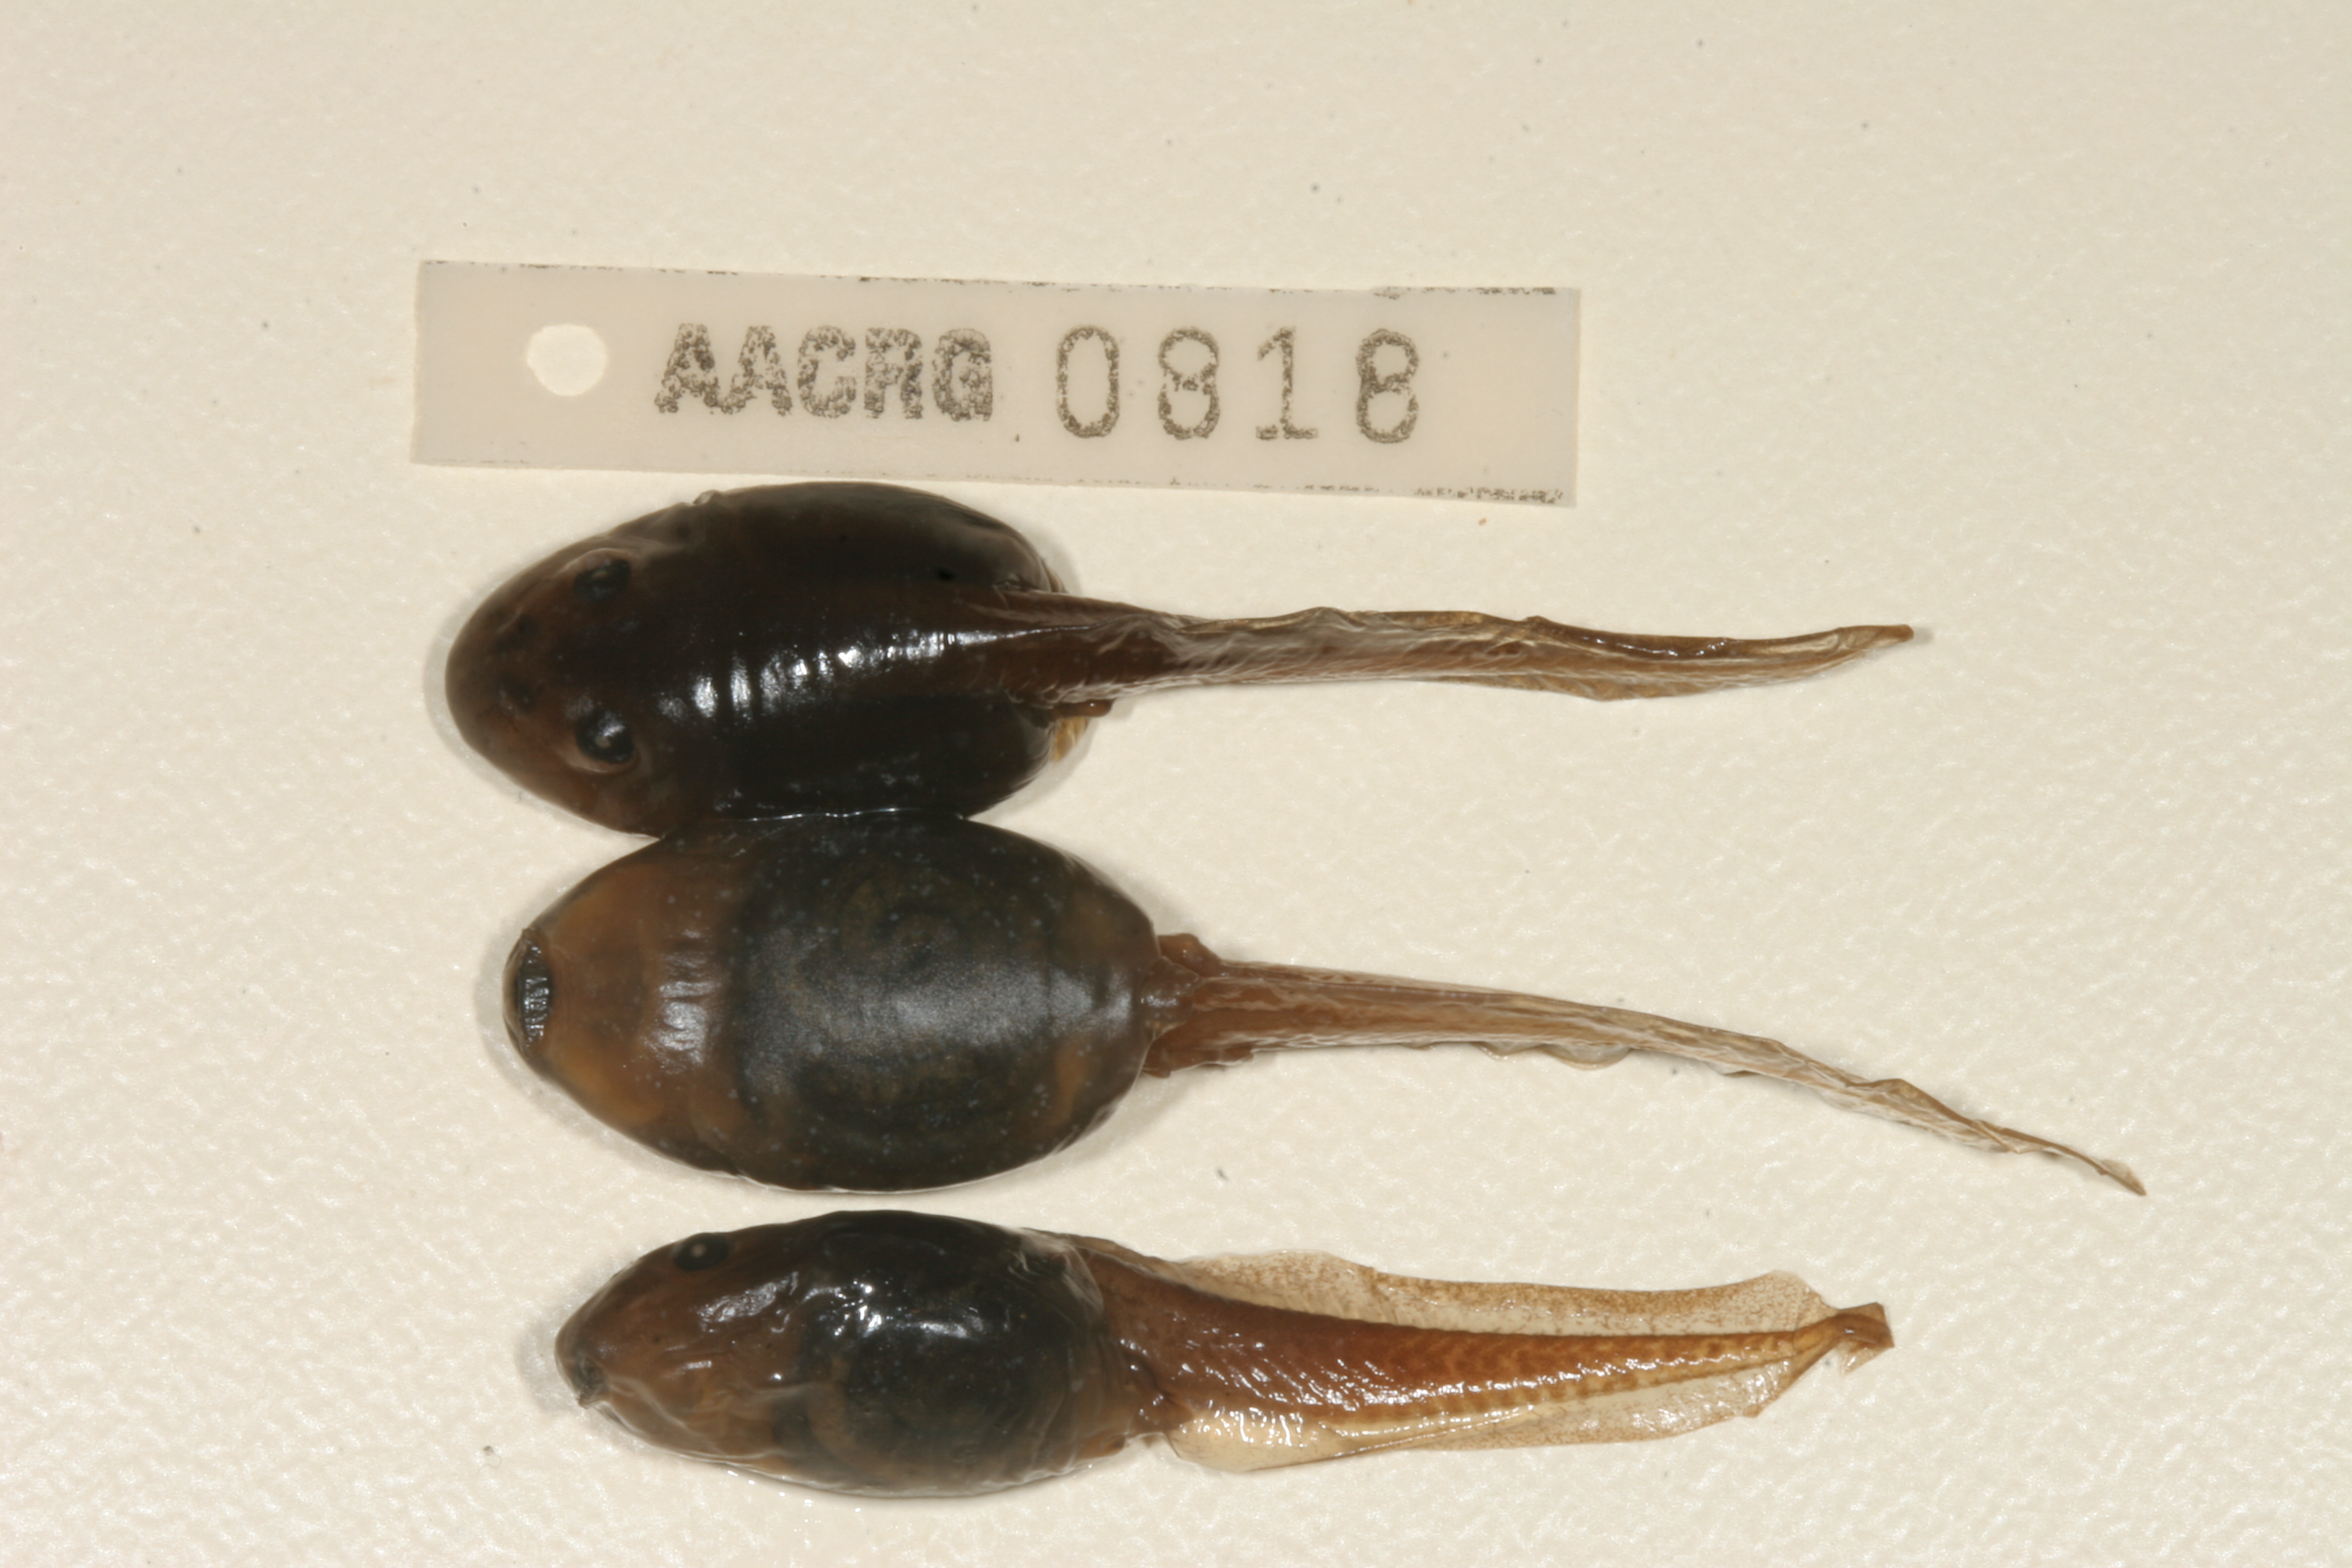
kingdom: Animalia
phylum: Chordata
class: Amphibia
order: Anura
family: Pyxicephalidae
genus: Strongylopus
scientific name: Strongylopus grayii
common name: Gray's stream frog
